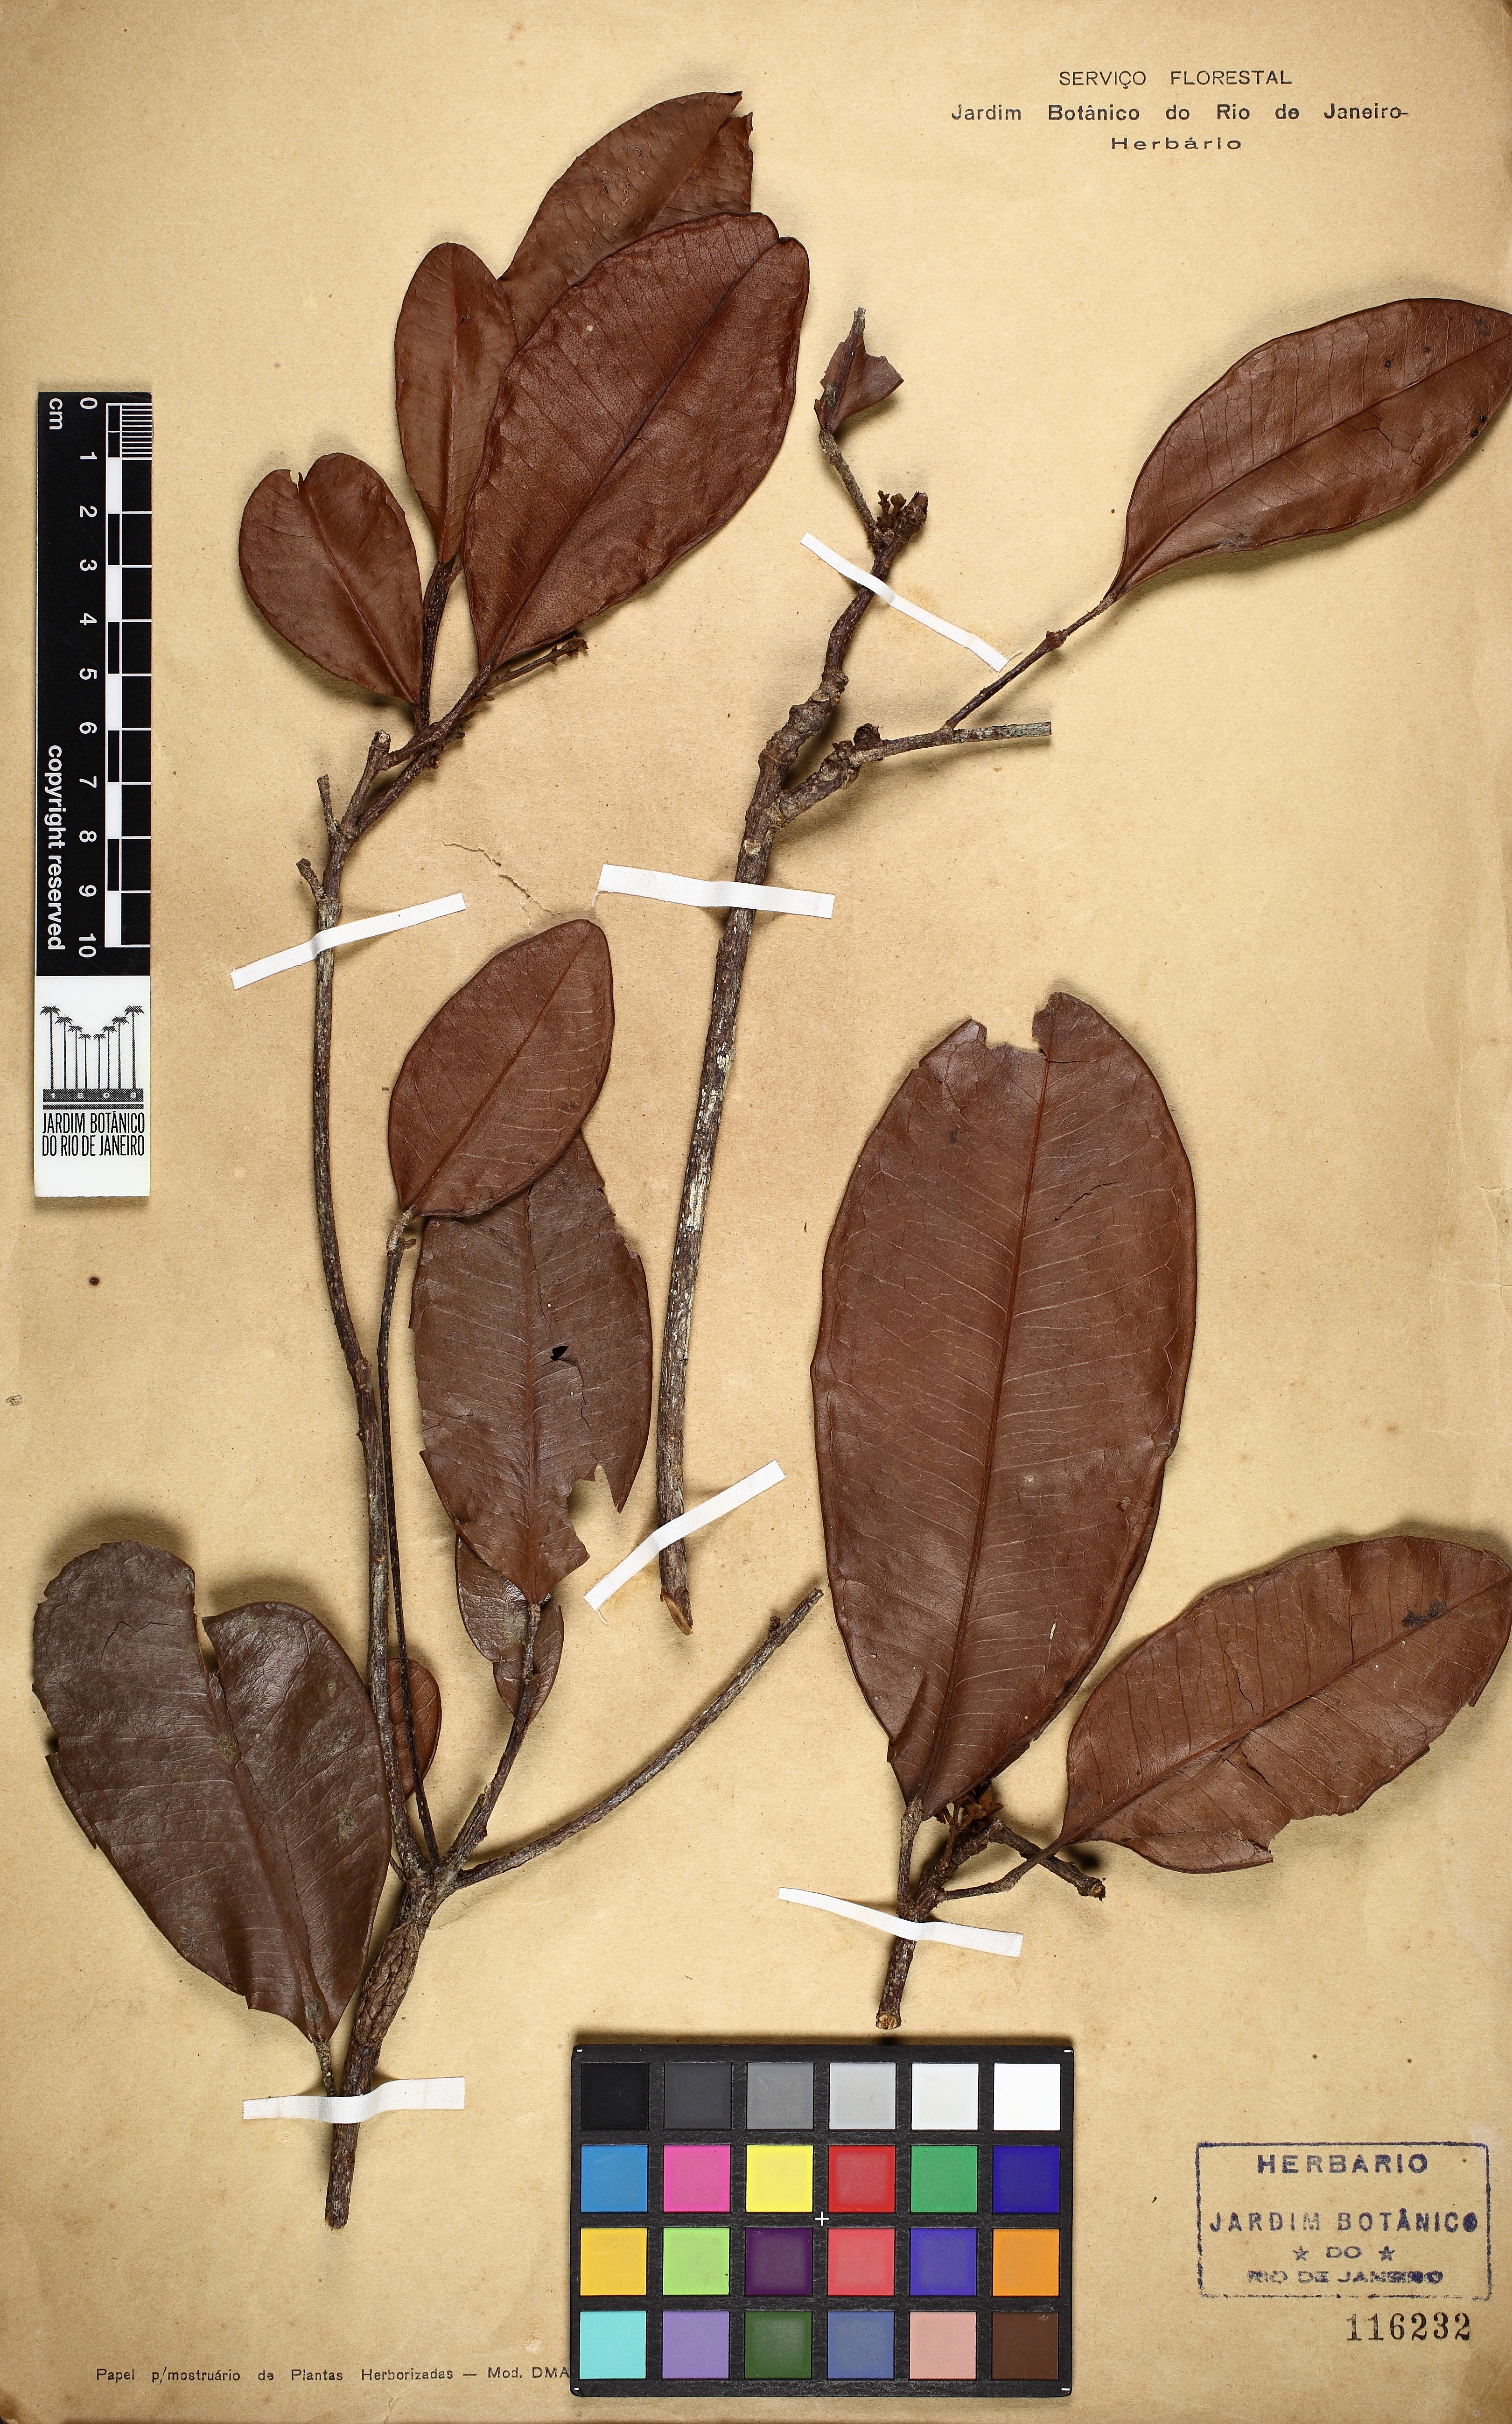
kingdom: Plantae
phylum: Tracheophyta
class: Magnoliopsida
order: Sapindales
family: Rutaceae
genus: Esenbeckia
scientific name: Esenbeckia grandiflora
